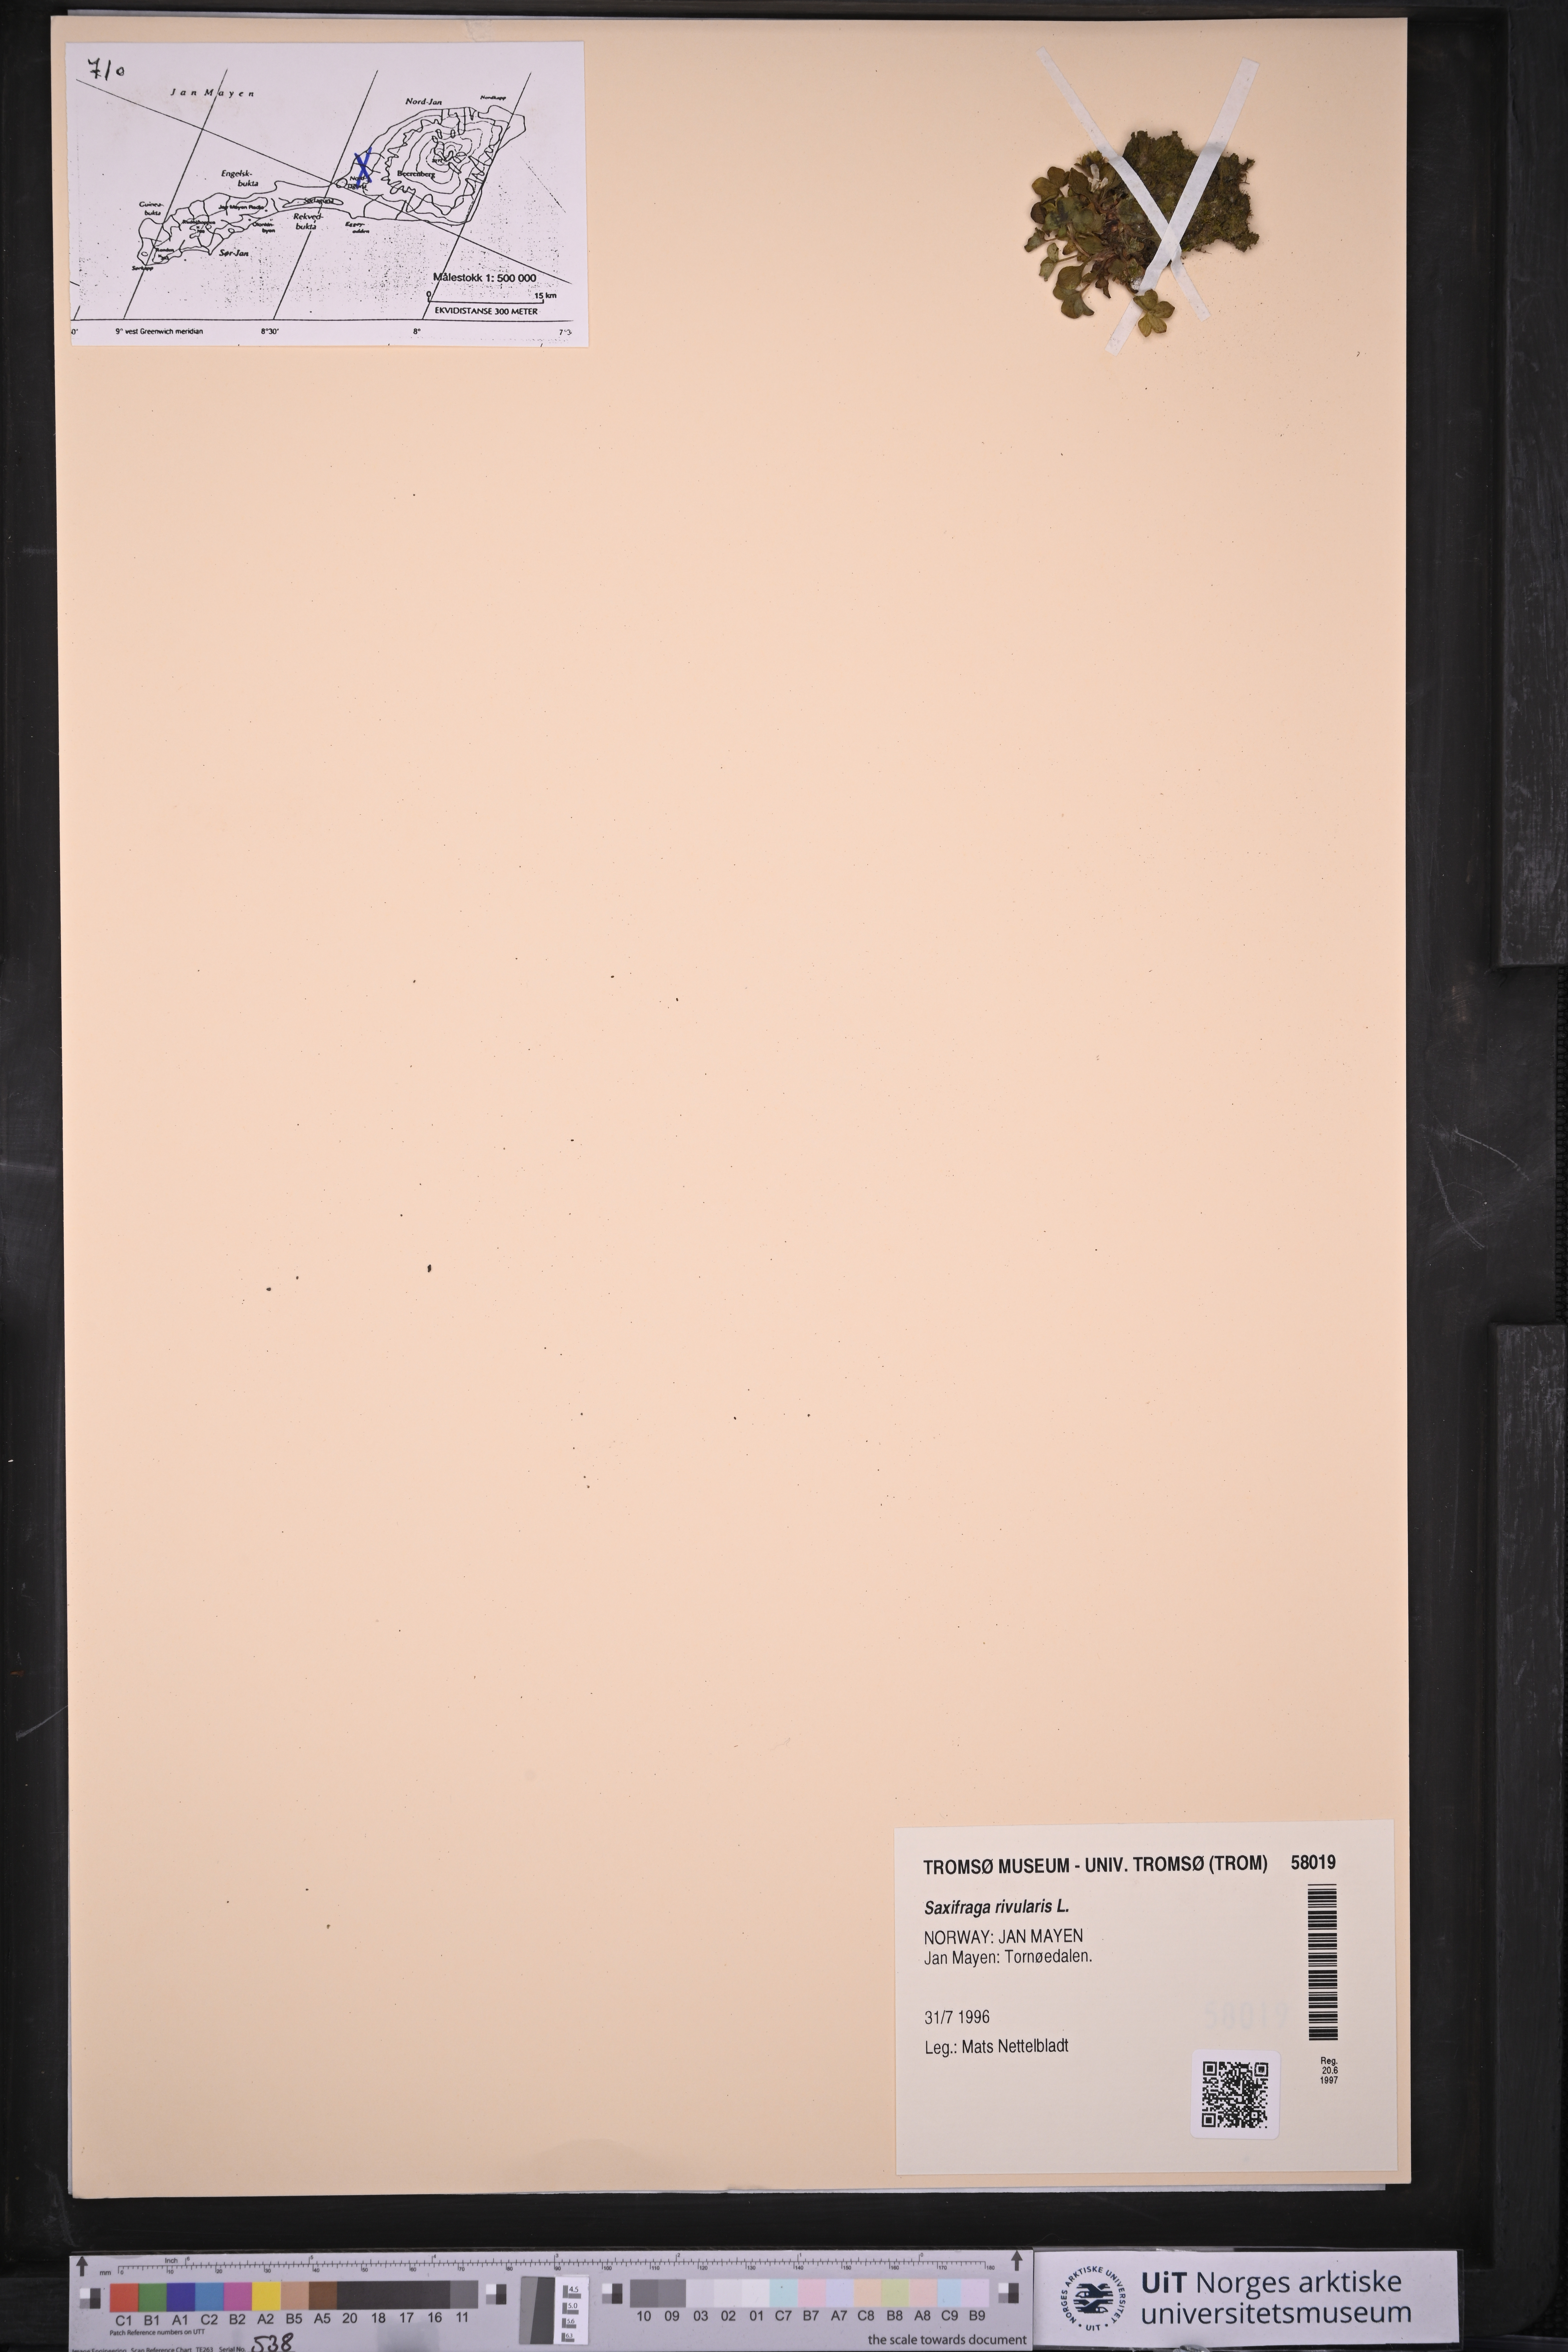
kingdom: Plantae
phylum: Tracheophyta
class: Magnoliopsida
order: Saxifragales
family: Saxifragaceae
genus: Saxifraga
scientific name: Saxifraga rivularis
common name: Highland saxifrage
